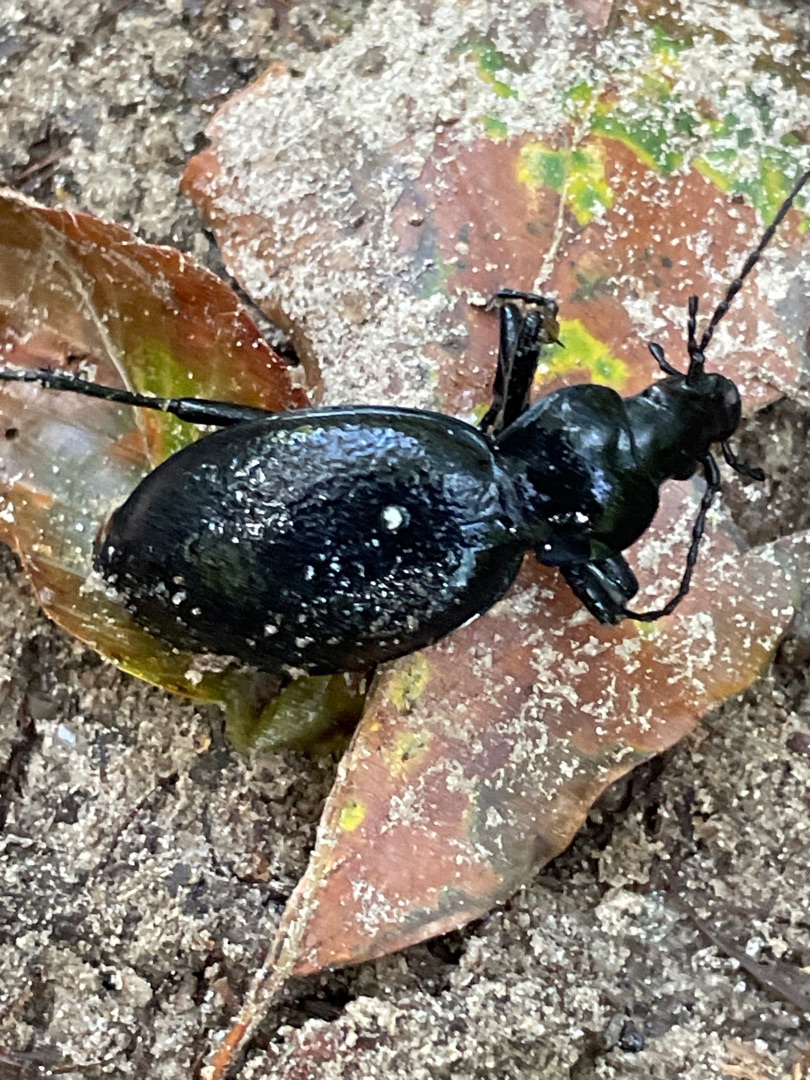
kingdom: Animalia
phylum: Arthropoda
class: Insecta
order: Coleoptera
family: Carabidae
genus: Carabus
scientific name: Carabus coriaceus
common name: Læderløber
